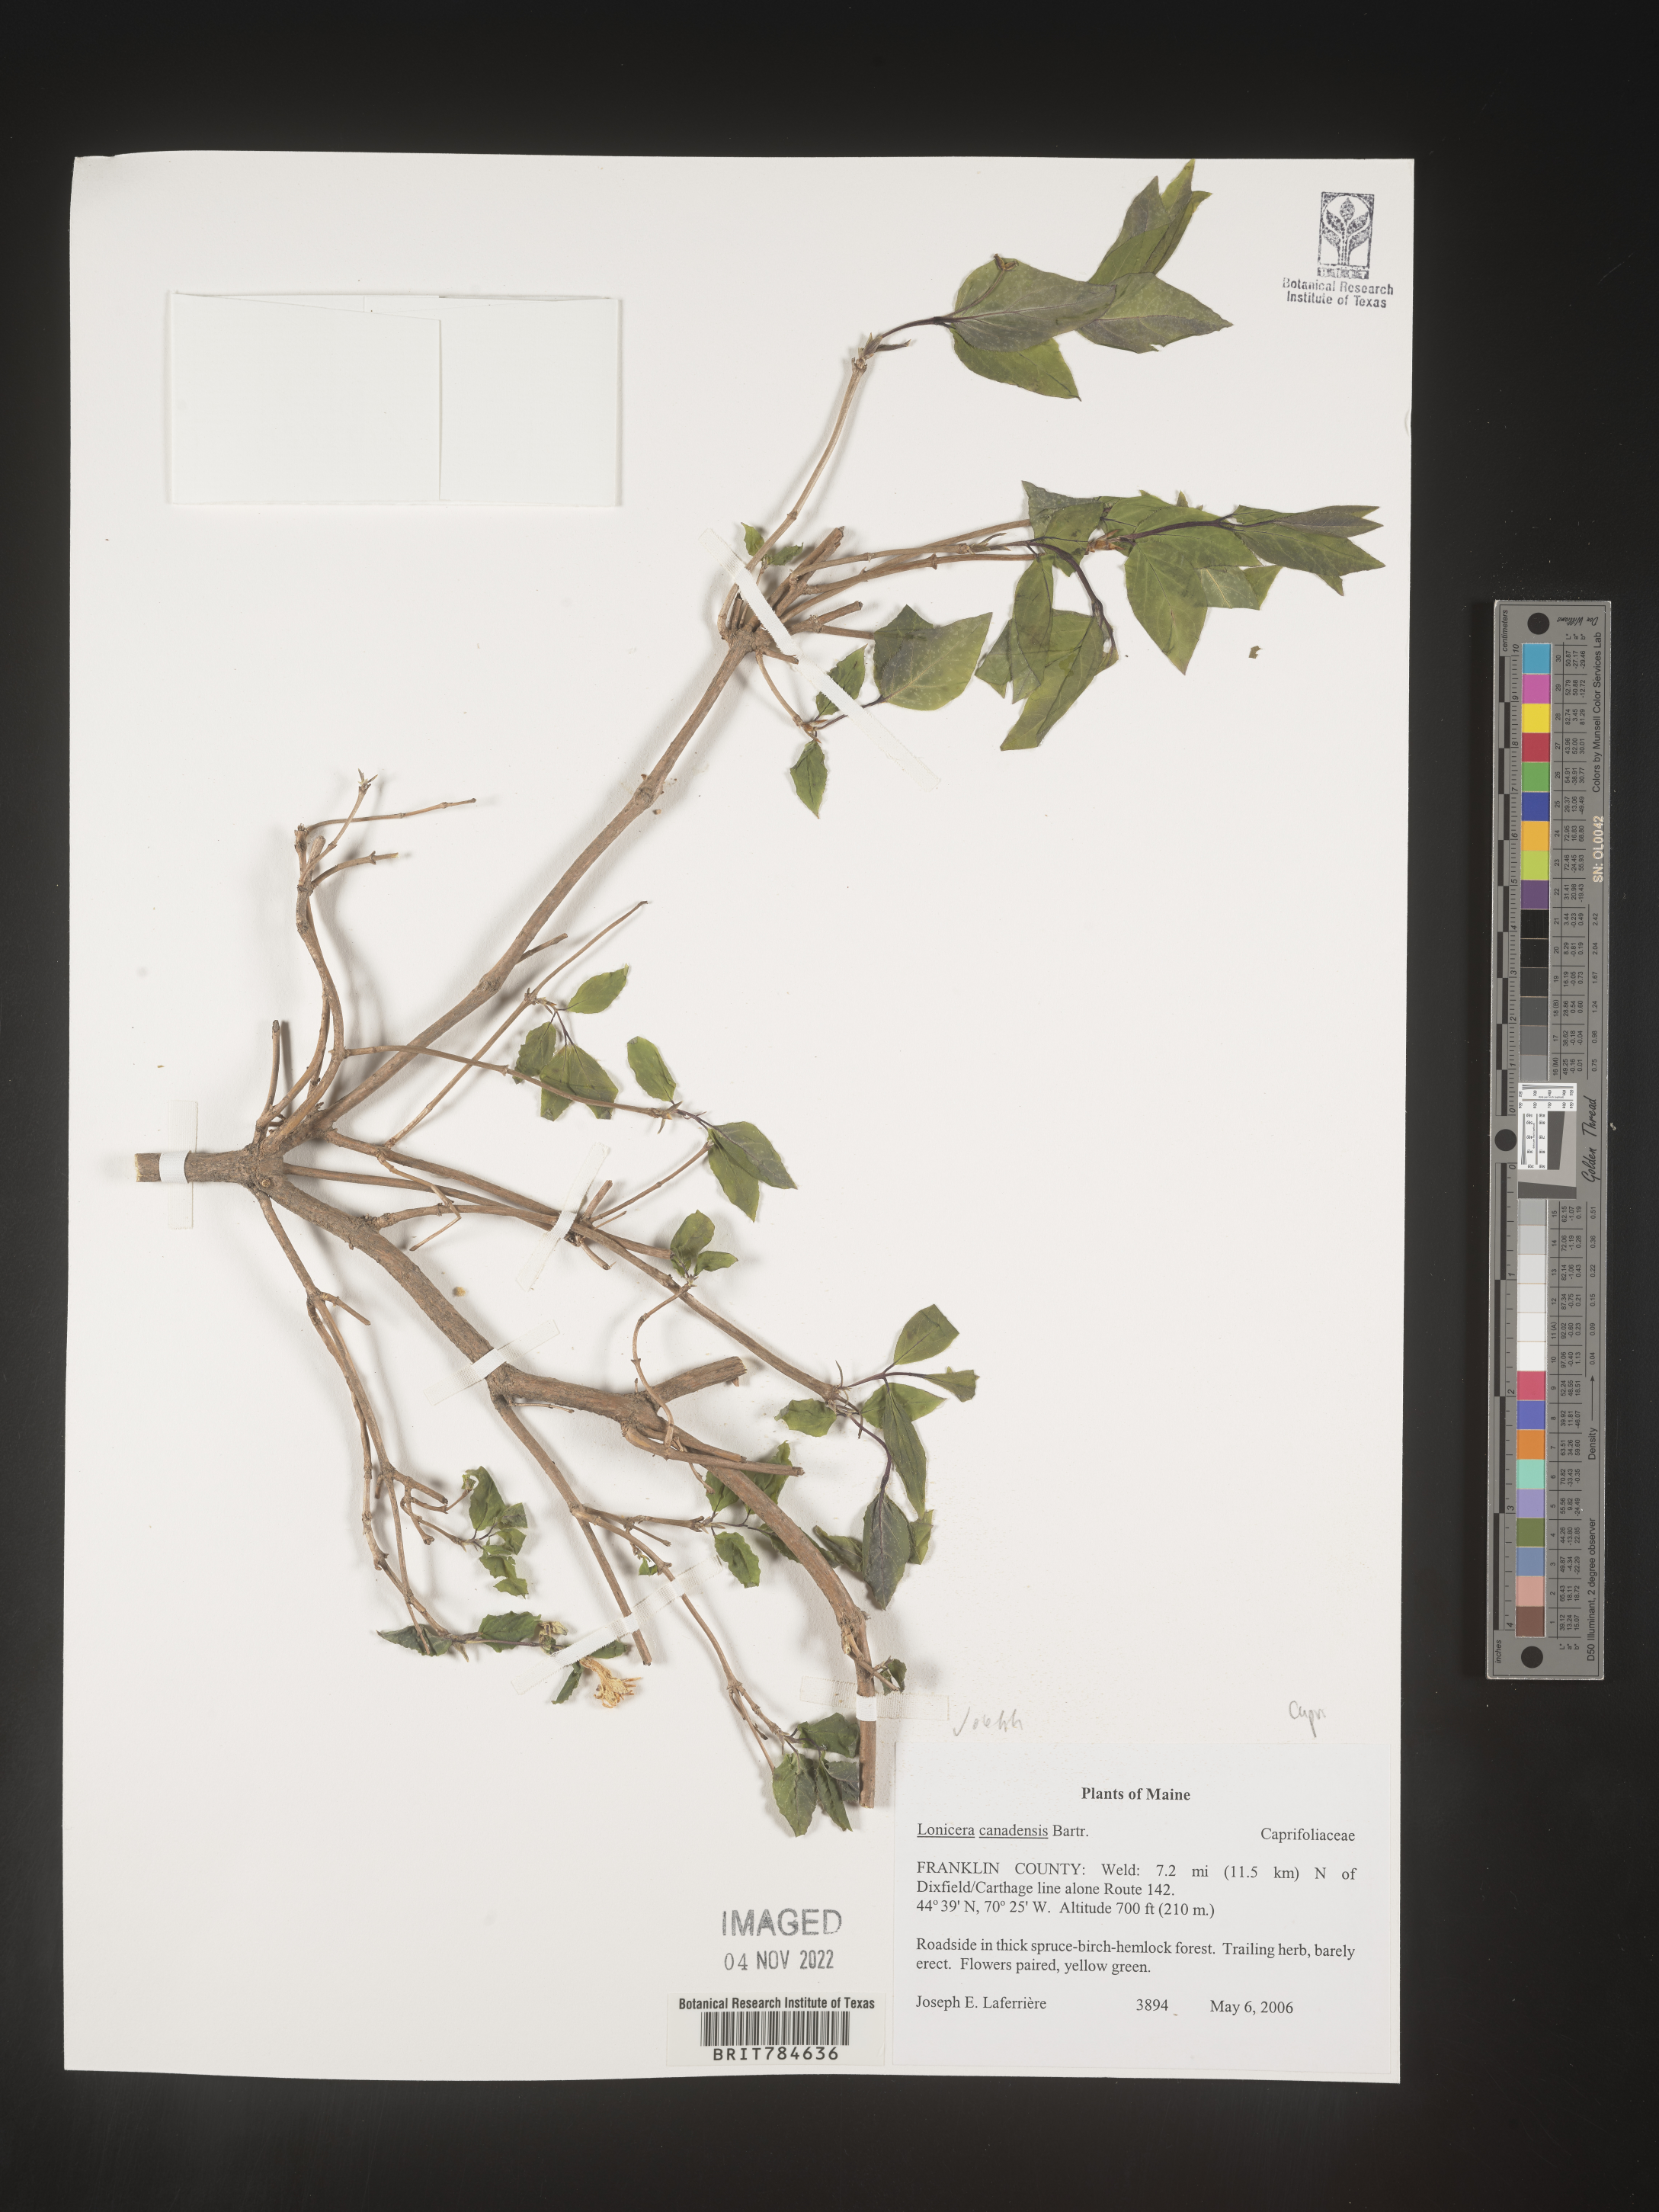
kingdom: Plantae
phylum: Tracheophyta
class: Magnoliopsida
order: Dipsacales
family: Caprifoliaceae
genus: Lonicera
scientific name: Lonicera
